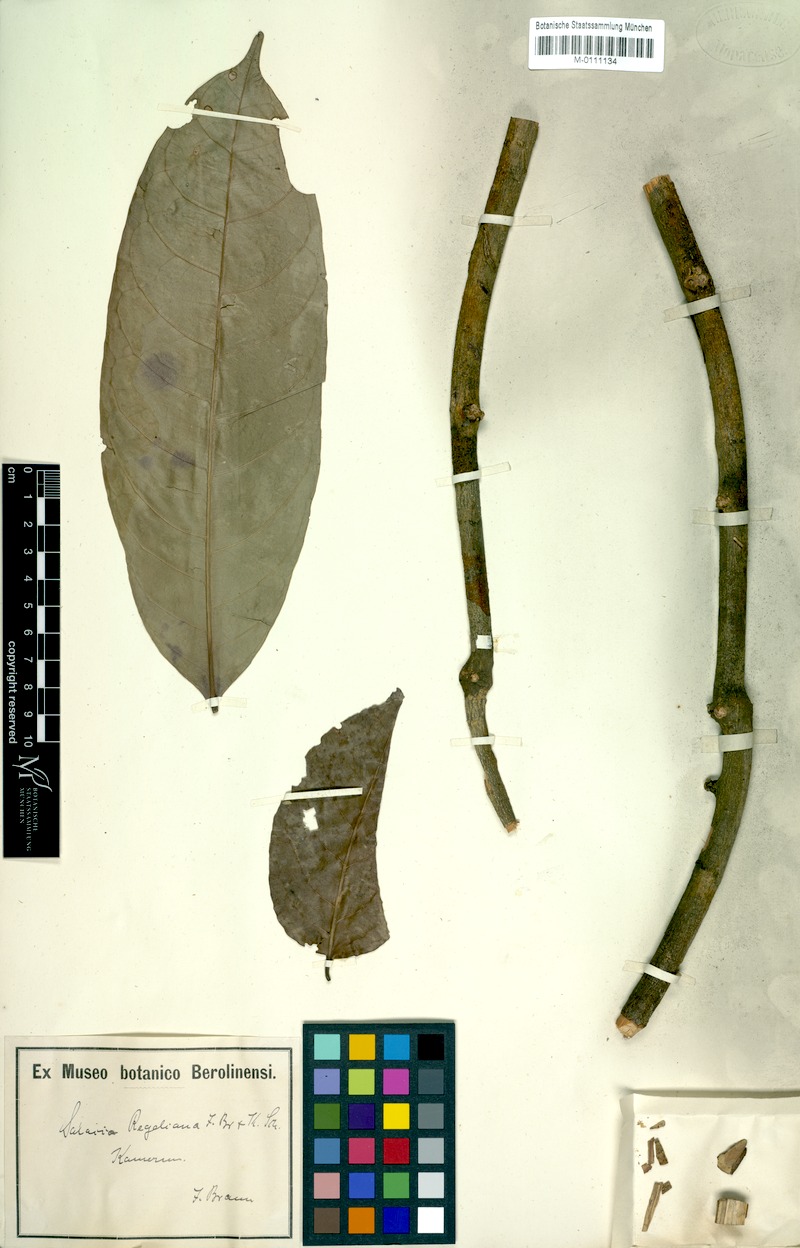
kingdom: Plantae
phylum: Tracheophyta
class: Magnoliopsida
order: Celastrales
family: Celastraceae
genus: Salacia
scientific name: Salacia regeliana
